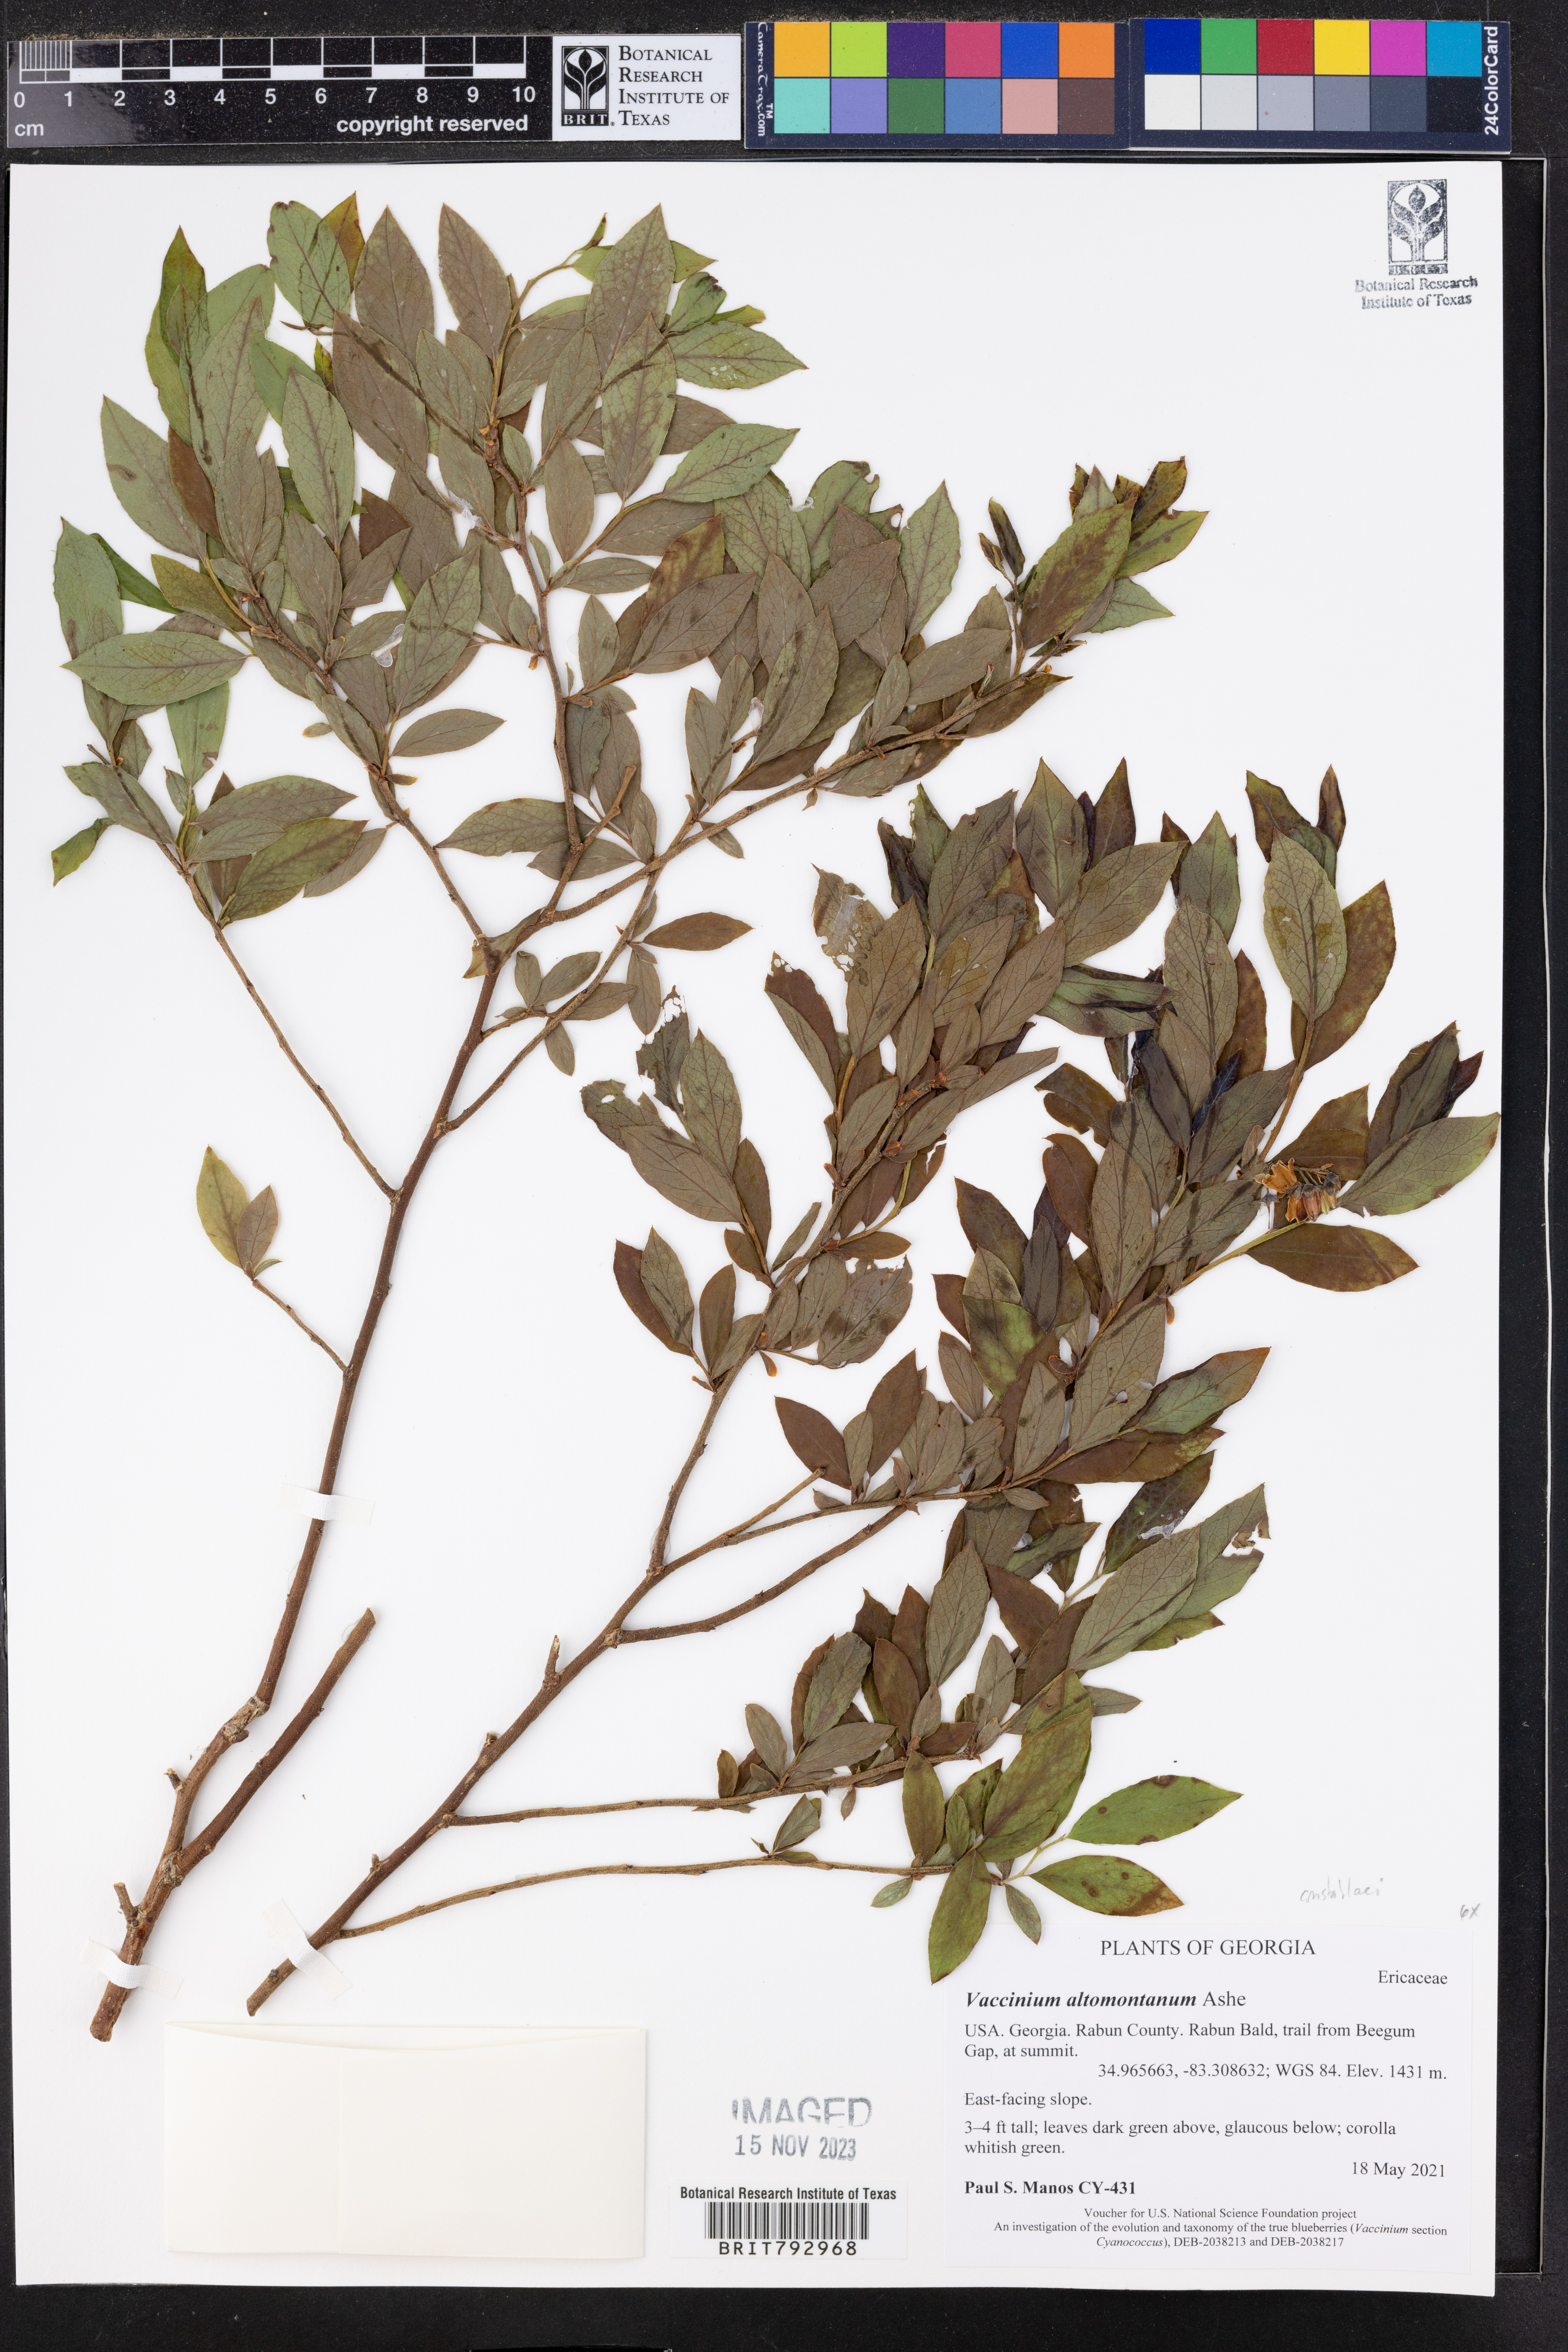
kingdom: Plantae
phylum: Tracheophyta
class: Magnoliopsida
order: Ericales
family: Ericaceae
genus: Vaccinium
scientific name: Vaccinium pallidum
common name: Blue ridge blueberry
